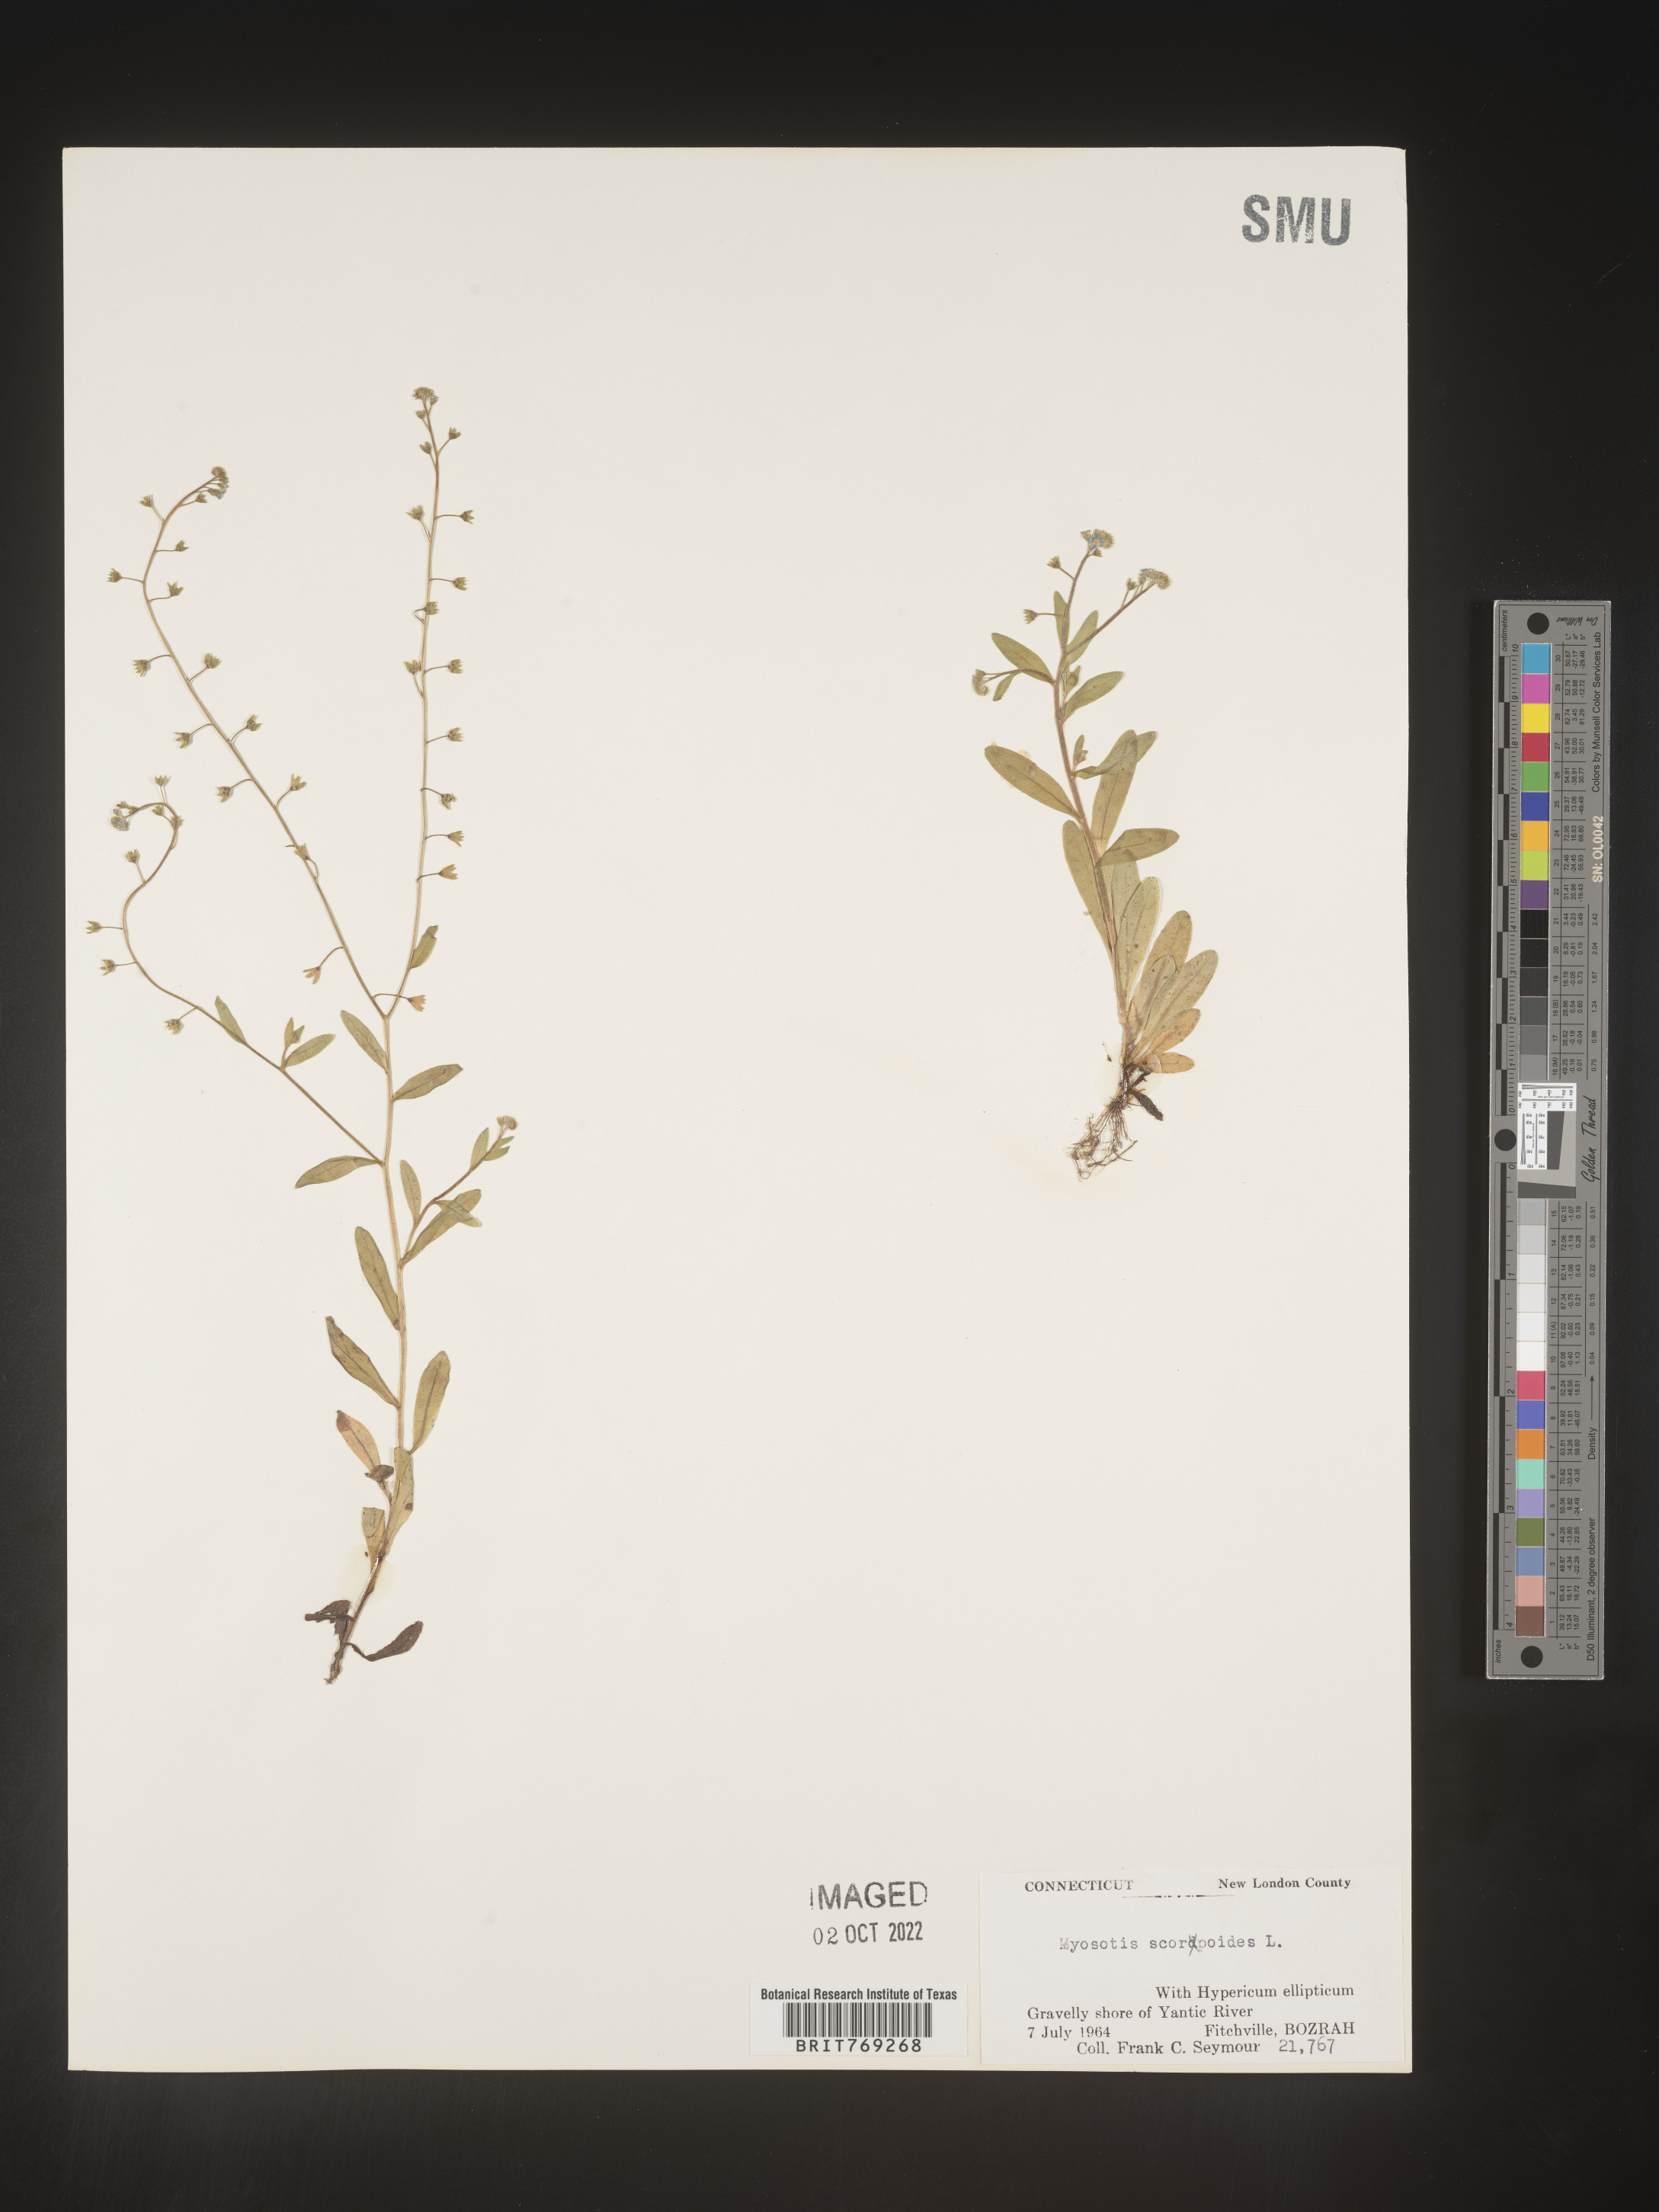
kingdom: Plantae
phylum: Tracheophyta
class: Magnoliopsida
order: Boraginales
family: Boraginaceae
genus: Myosotis
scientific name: Myosotis scorpioides
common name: Water forget-me-not
